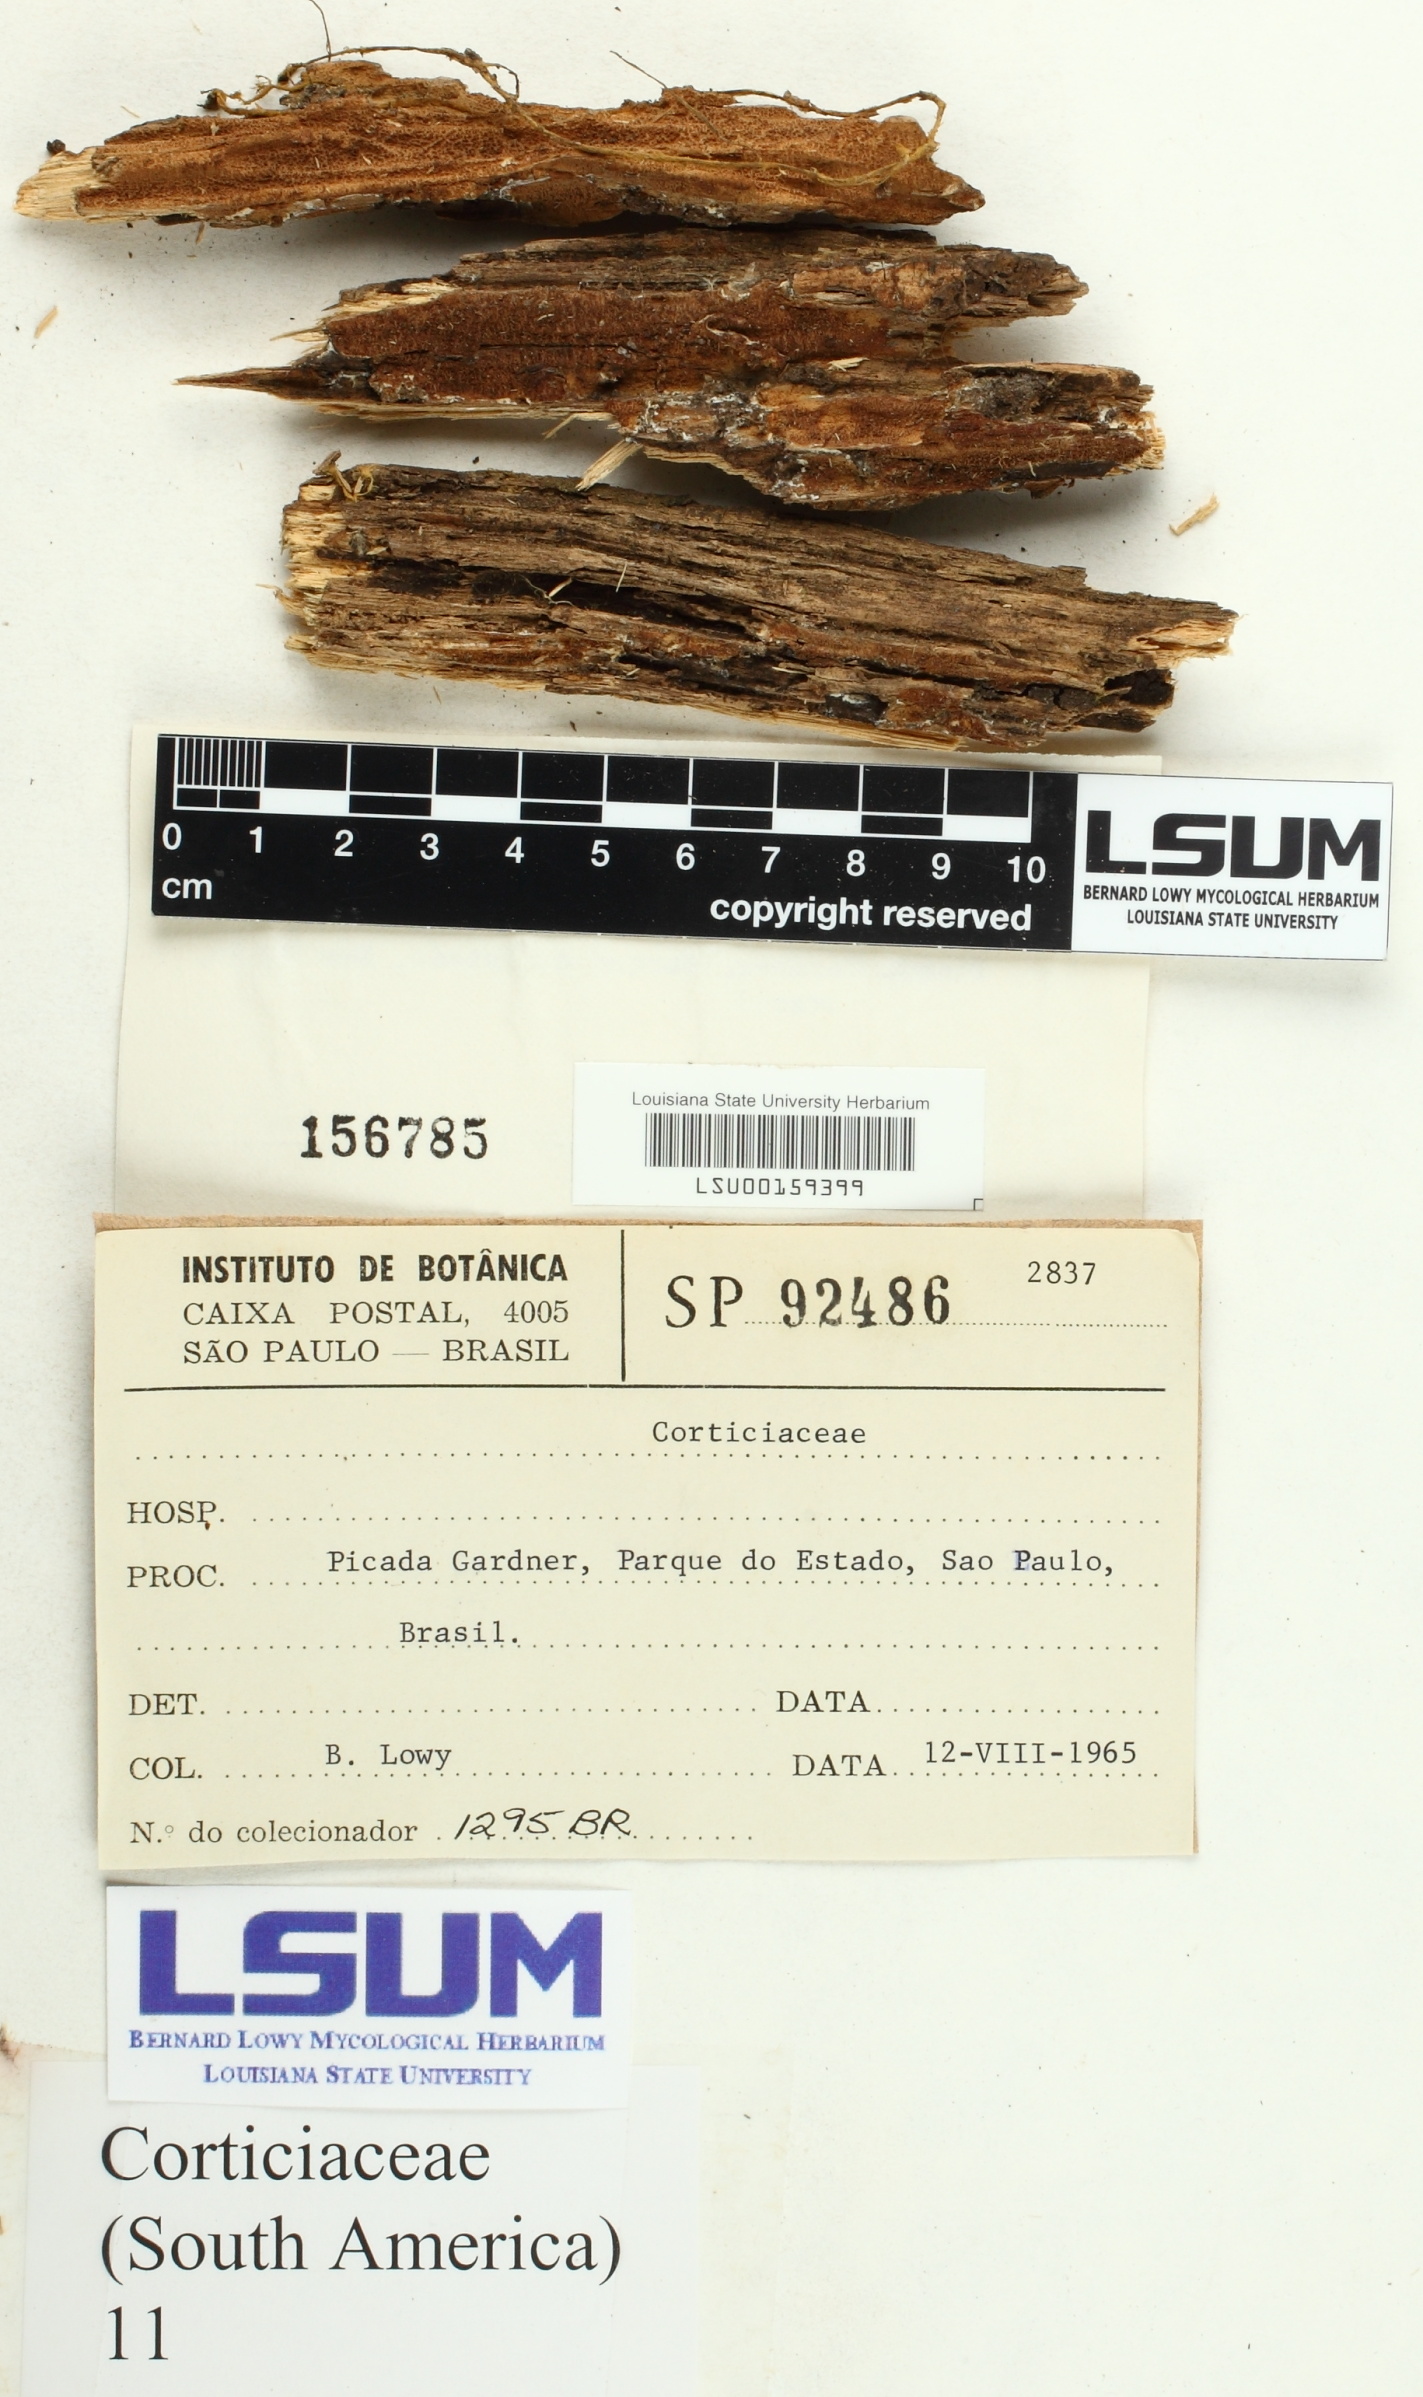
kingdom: Fungi
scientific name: Fungi
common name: Fungi
